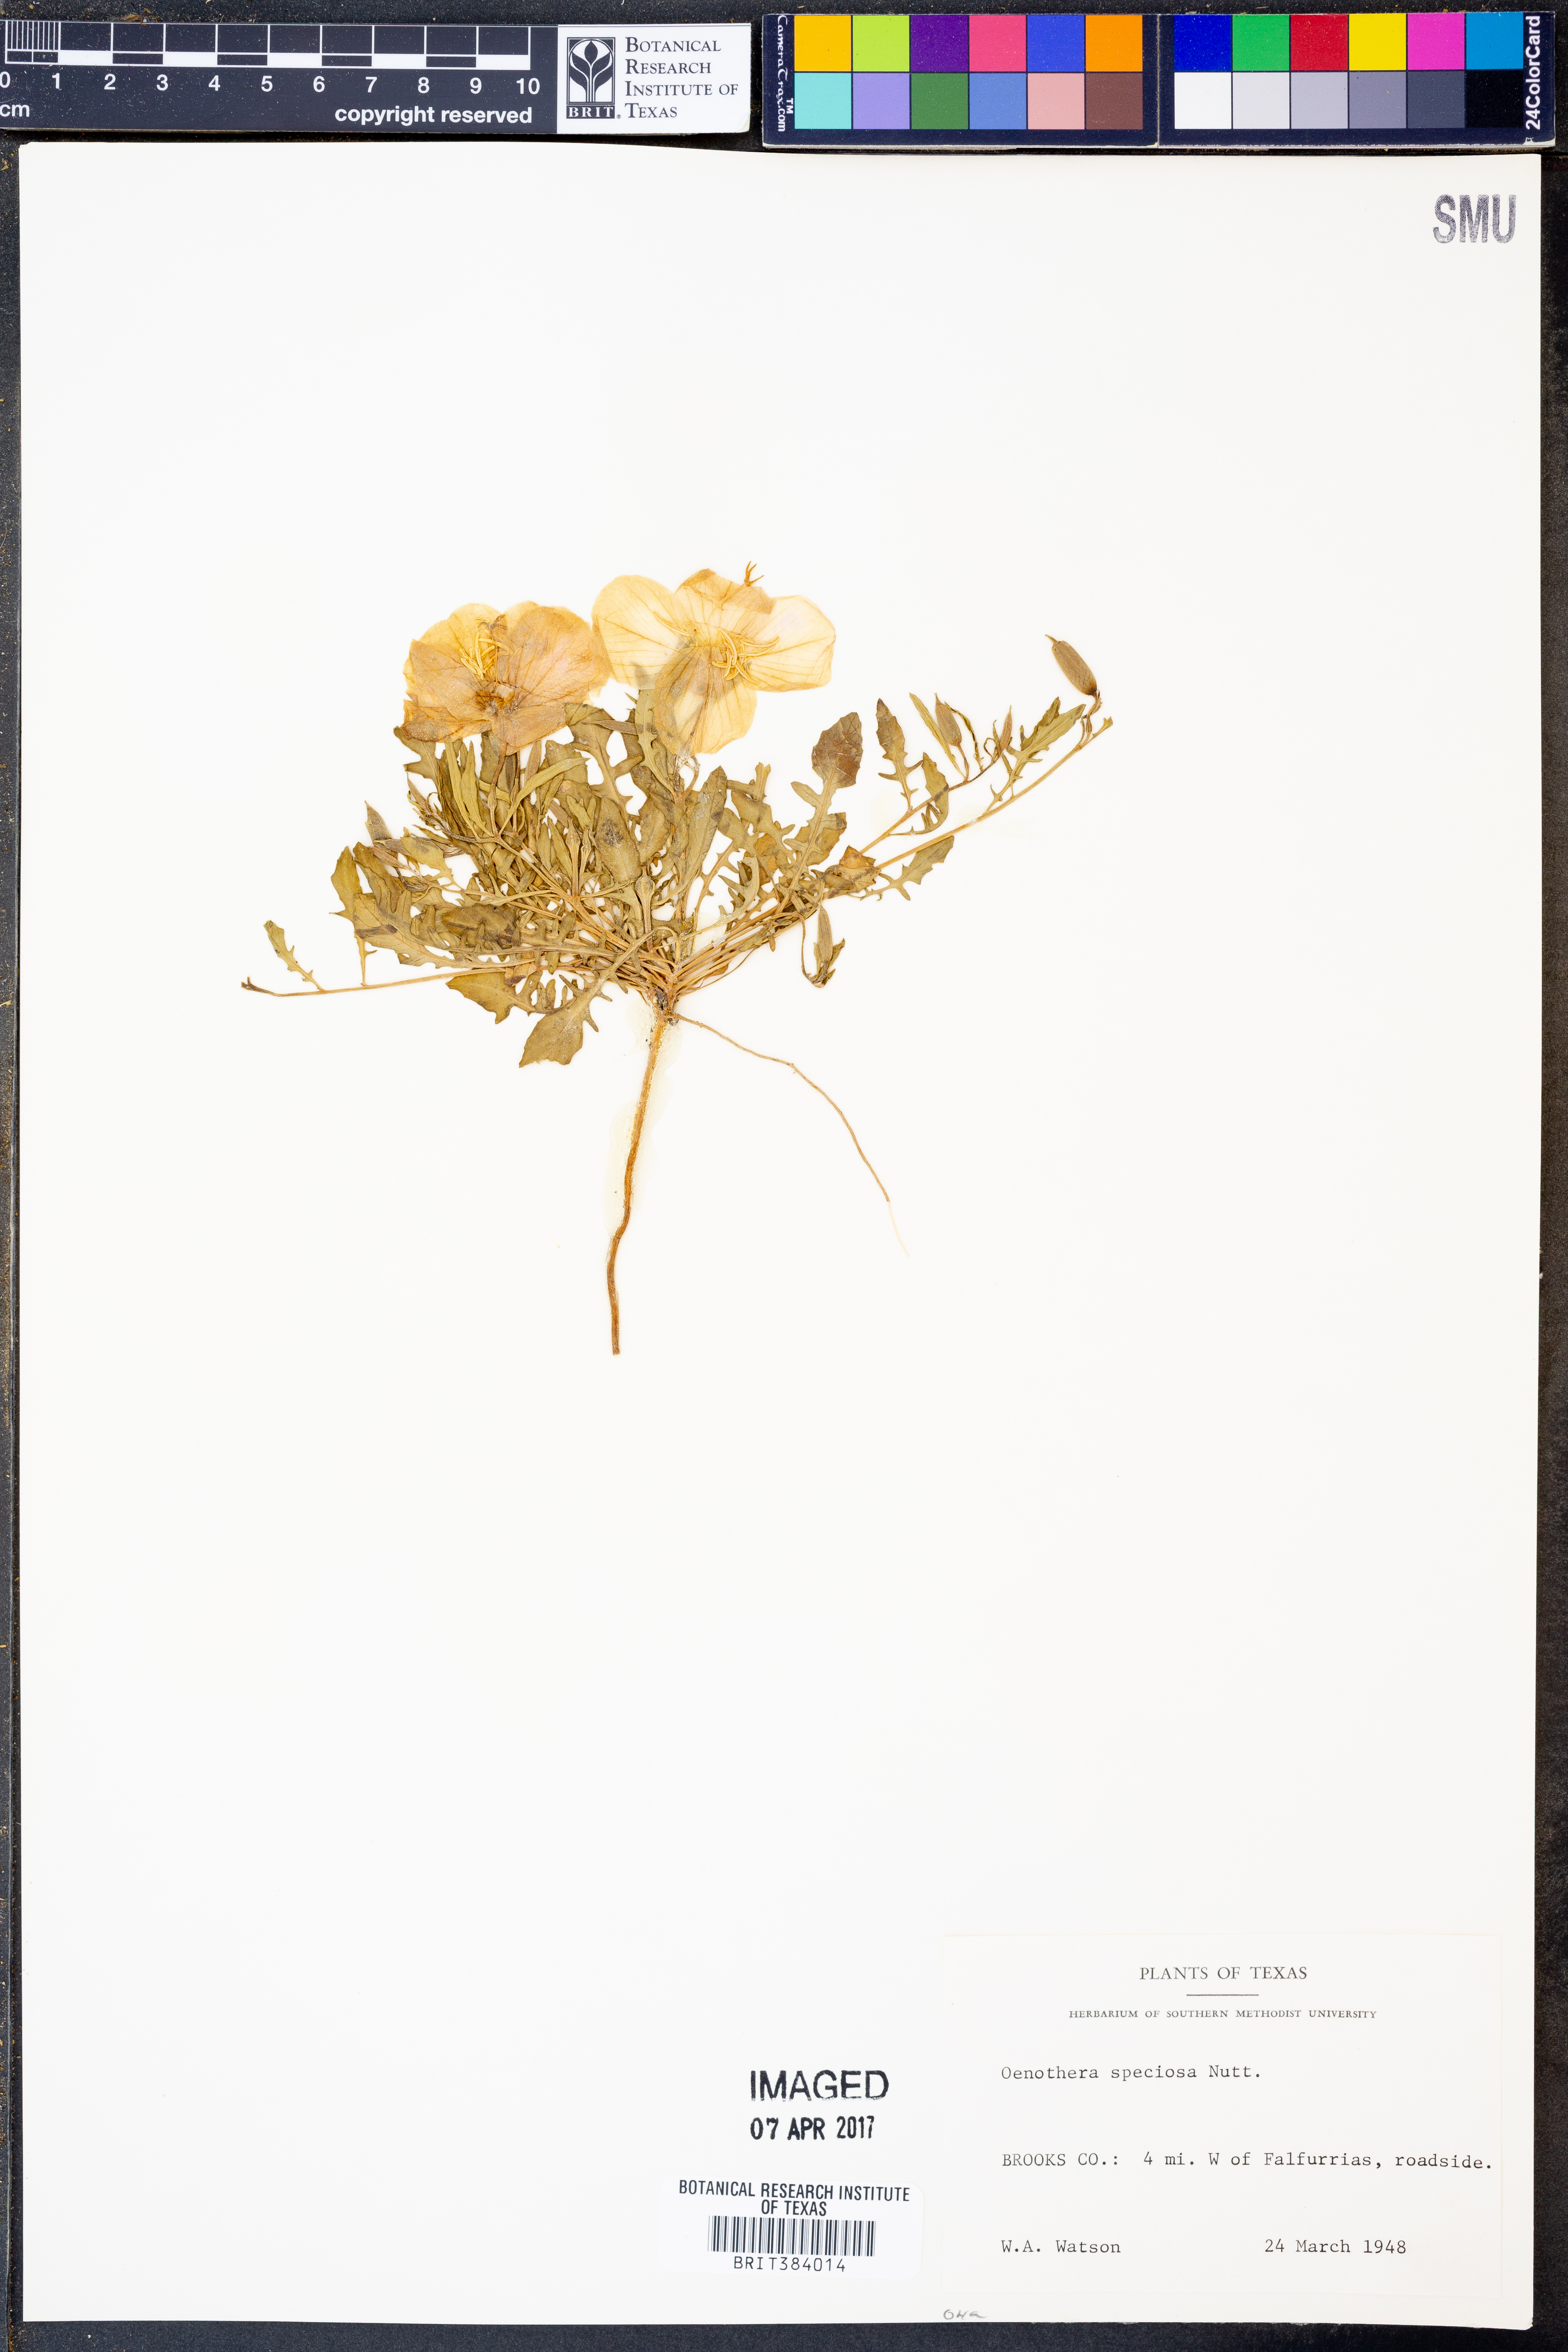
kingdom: Plantae
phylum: Tracheophyta
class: Magnoliopsida
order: Myrtales
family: Onagraceae
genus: Oenothera
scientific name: Oenothera speciosa
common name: White evening-primrose
